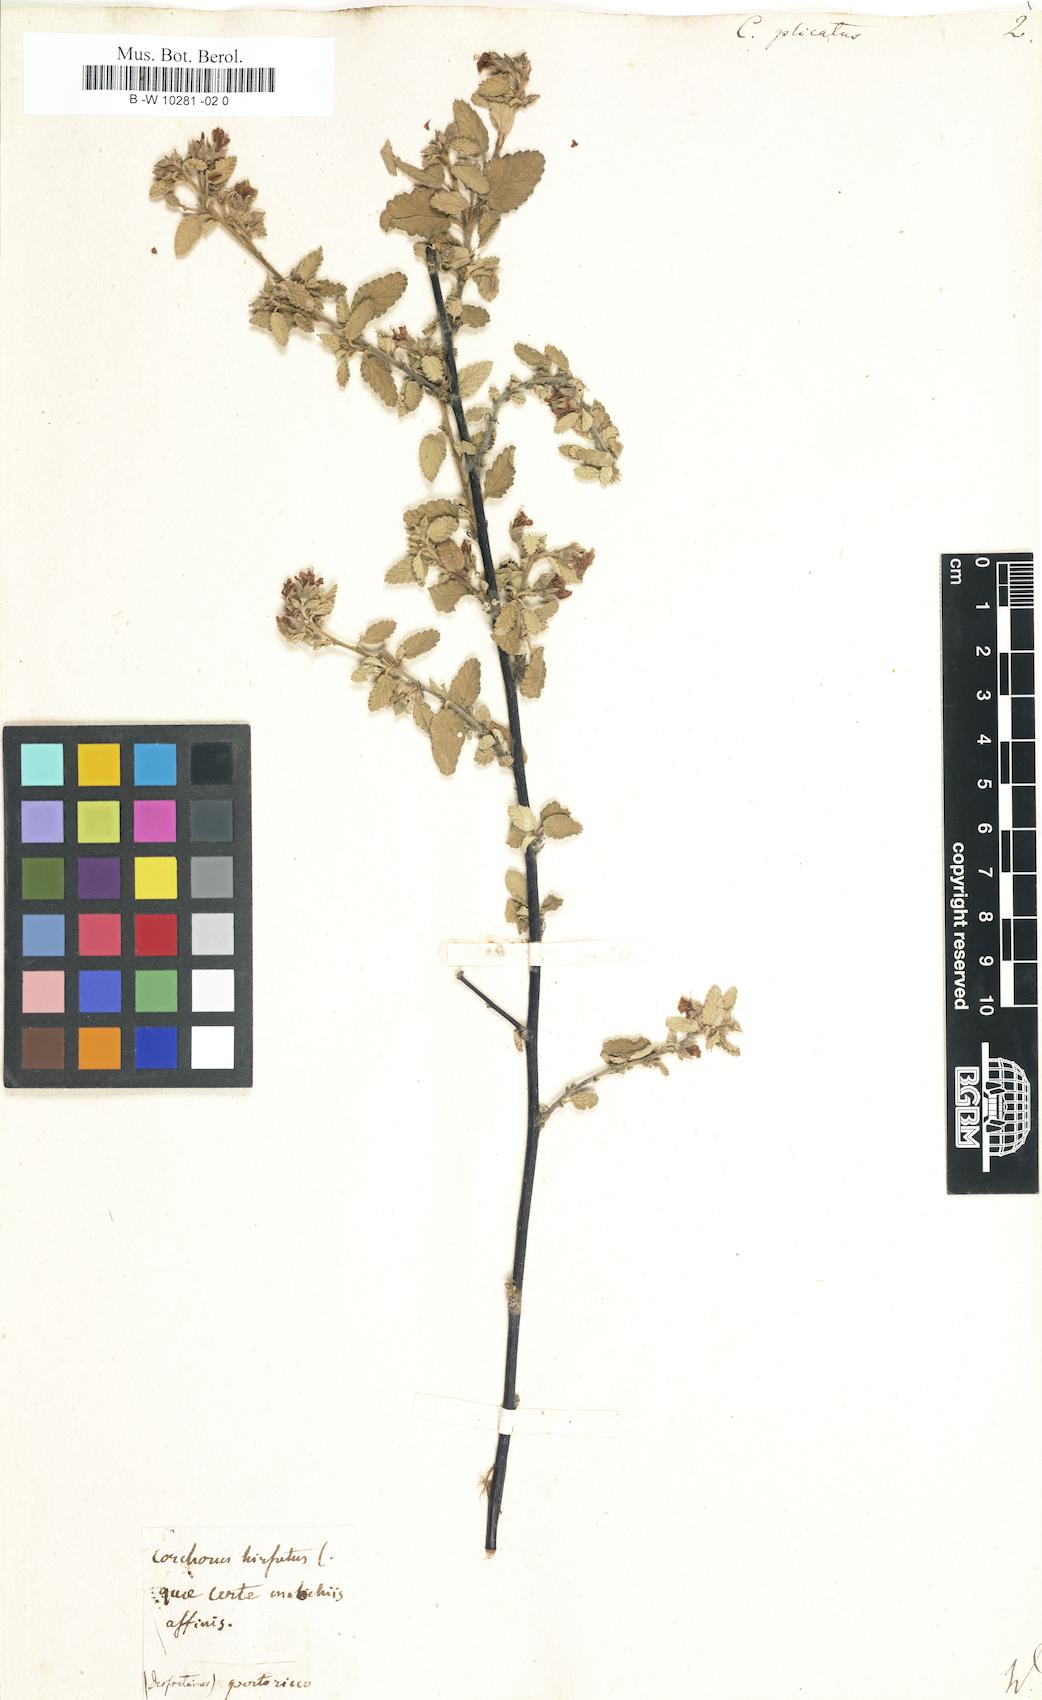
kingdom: Plantae
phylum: Tracheophyta
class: Magnoliopsida
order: Malvales
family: Malvaceae
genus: Corchorus
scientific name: Corchorus
